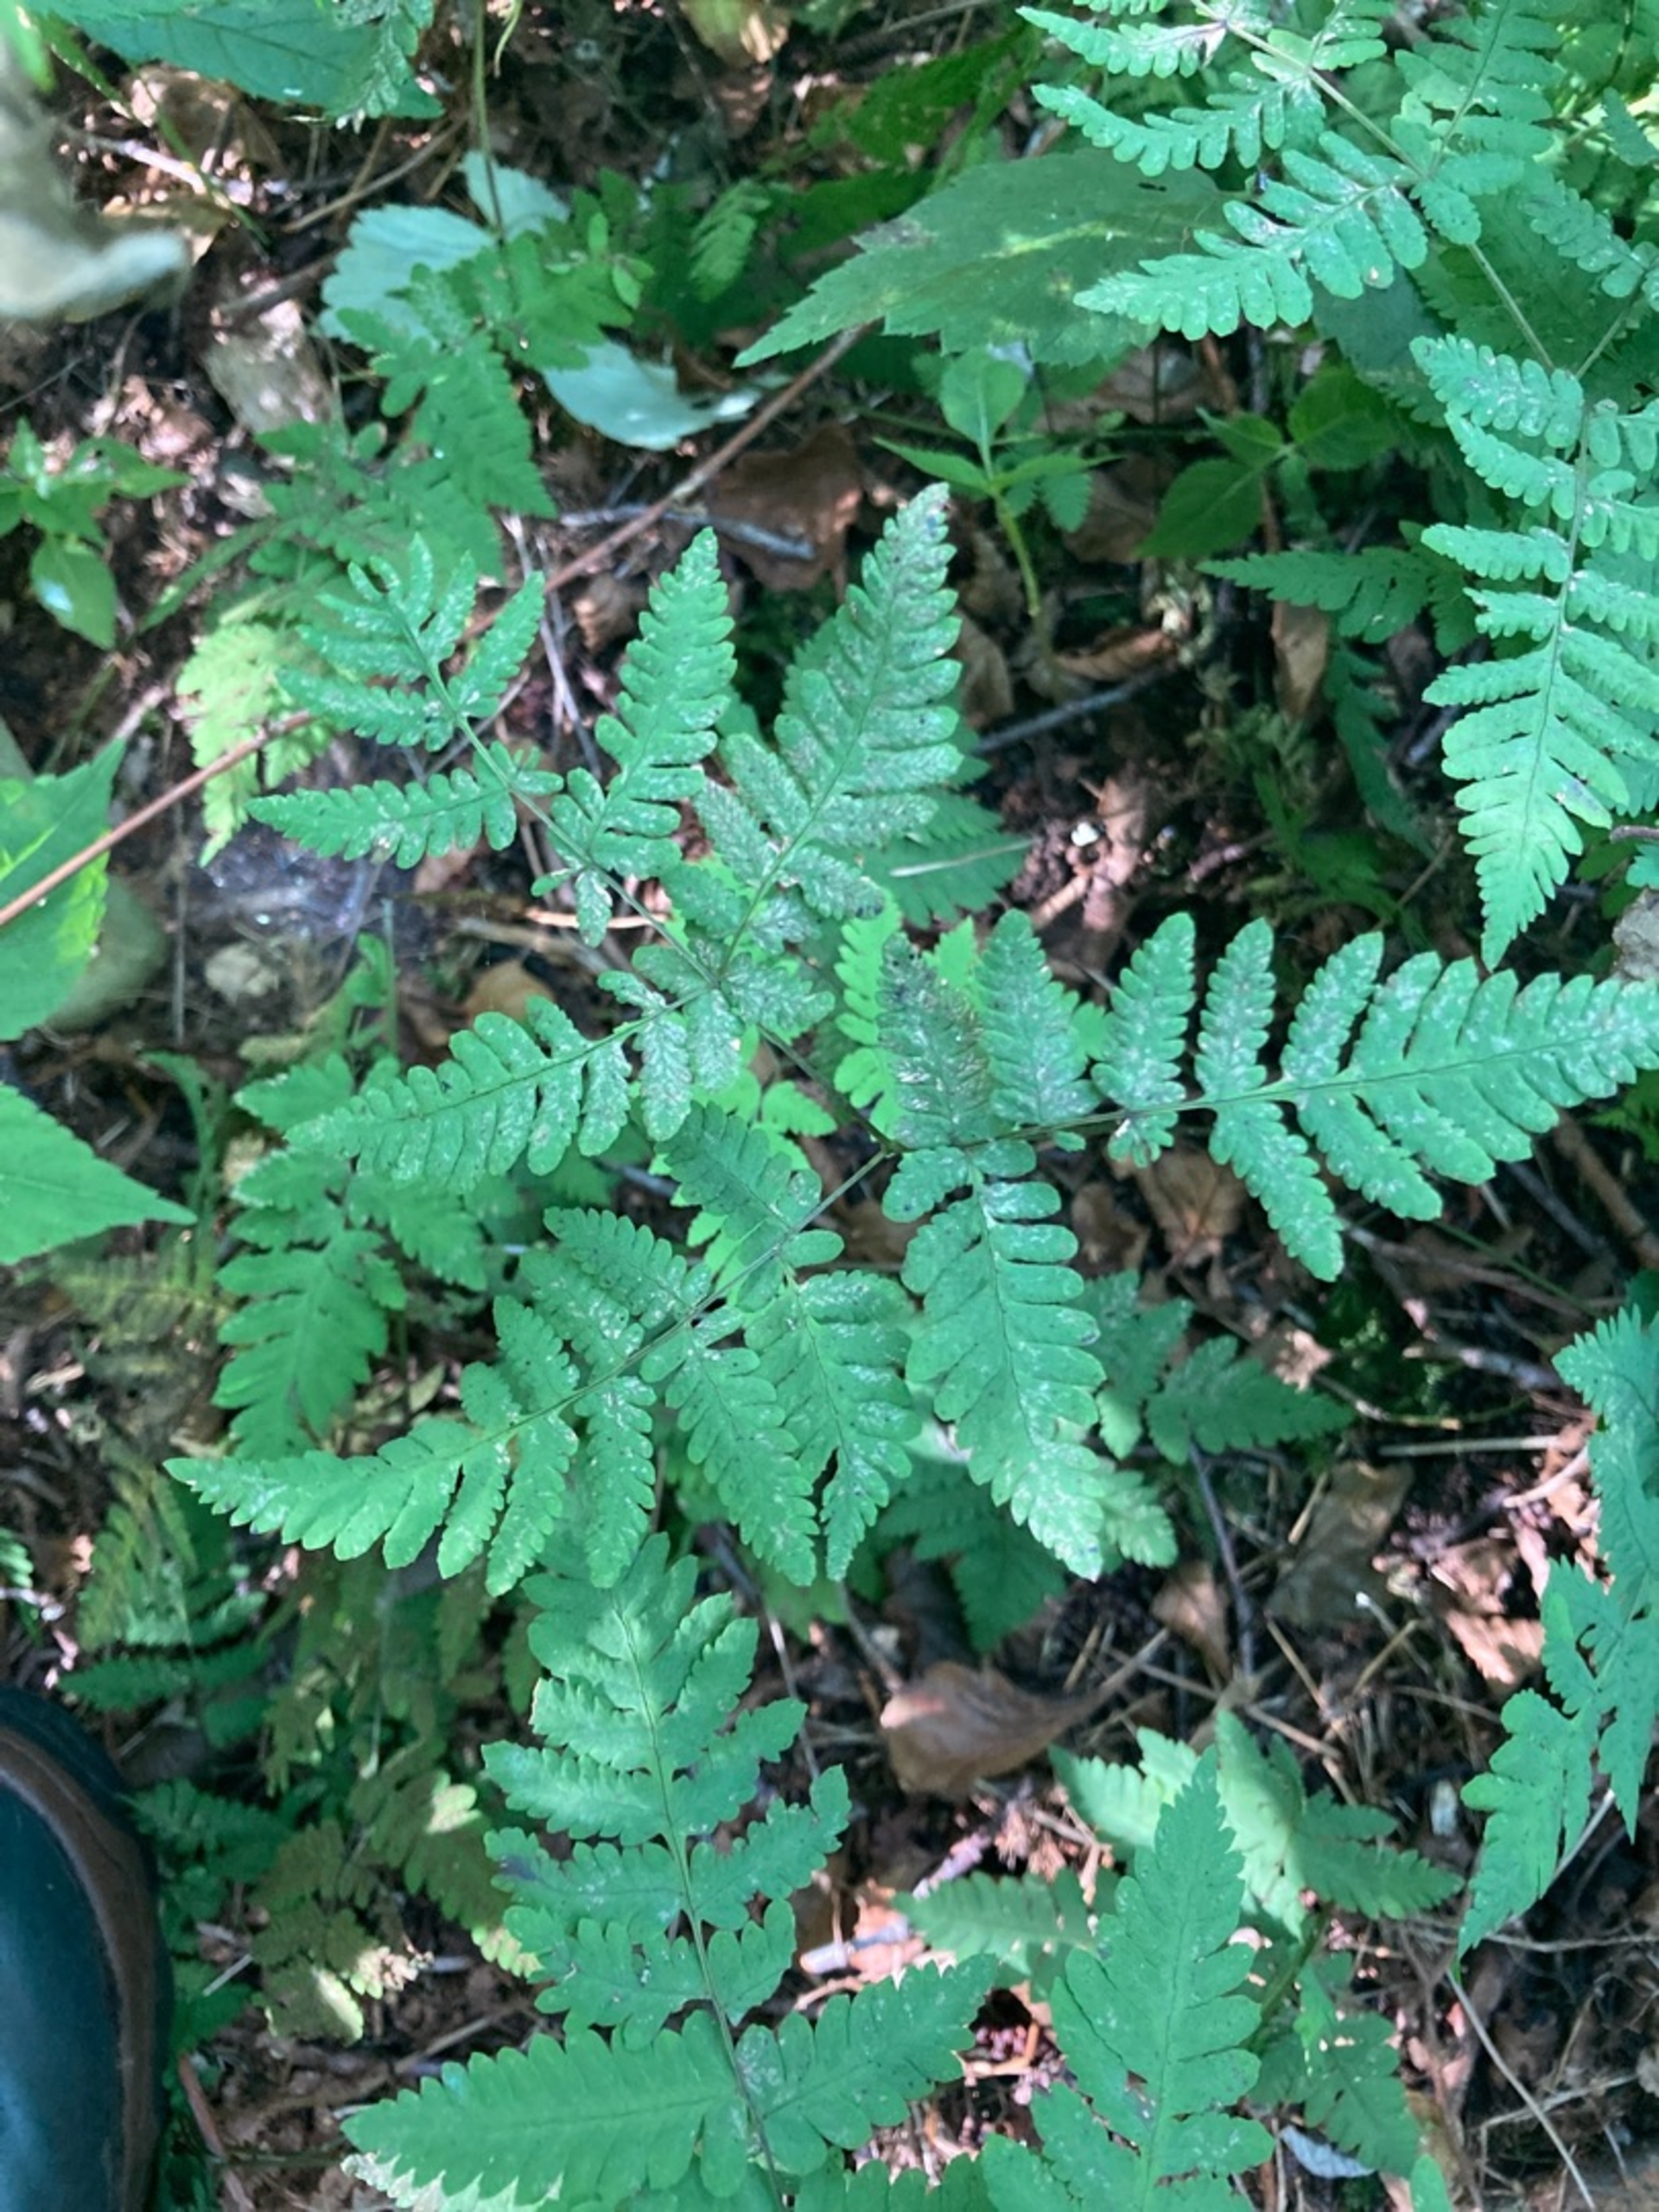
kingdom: Plantae
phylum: Tracheophyta
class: Polypodiopsida
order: Polypodiales
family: Cystopteridaceae
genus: Gymnocarpium
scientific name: Gymnocarpium dryopteris
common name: Tredelt egebregne
